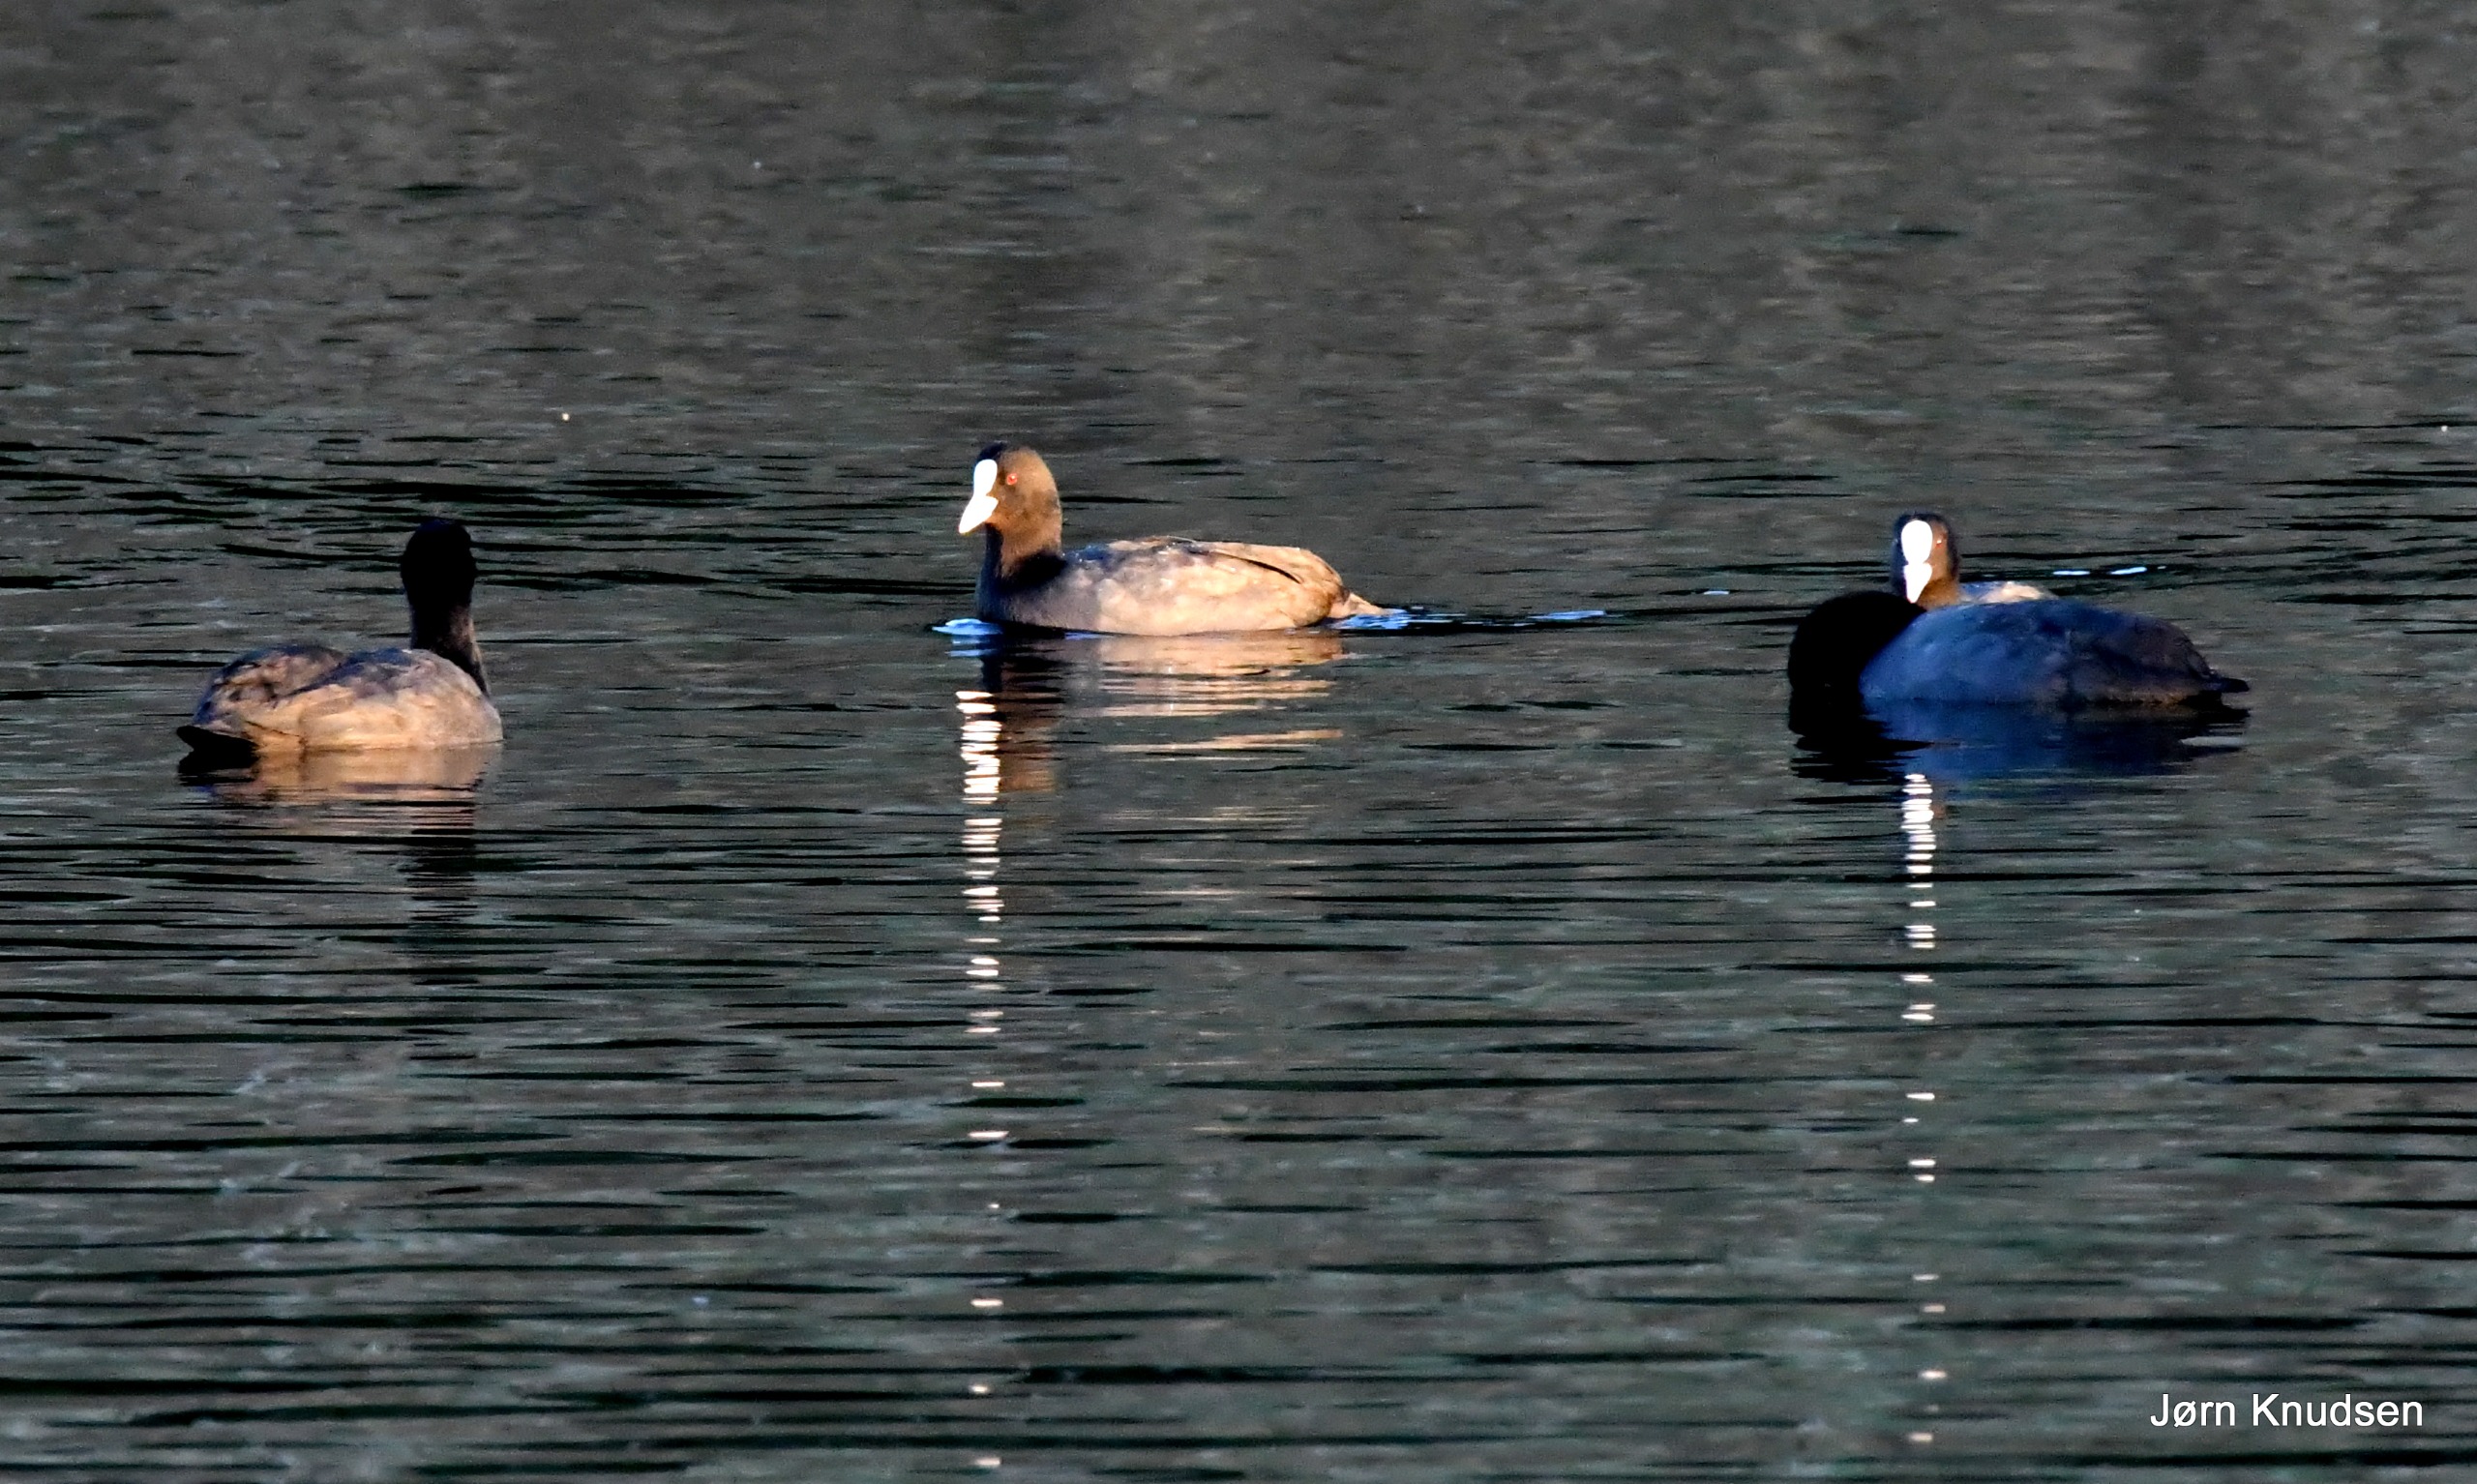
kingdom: Animalia
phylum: Chordata
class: Aves
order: Gruiformes
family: Rallidae
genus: Fulica
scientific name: Fulica atra
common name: Blishøne
